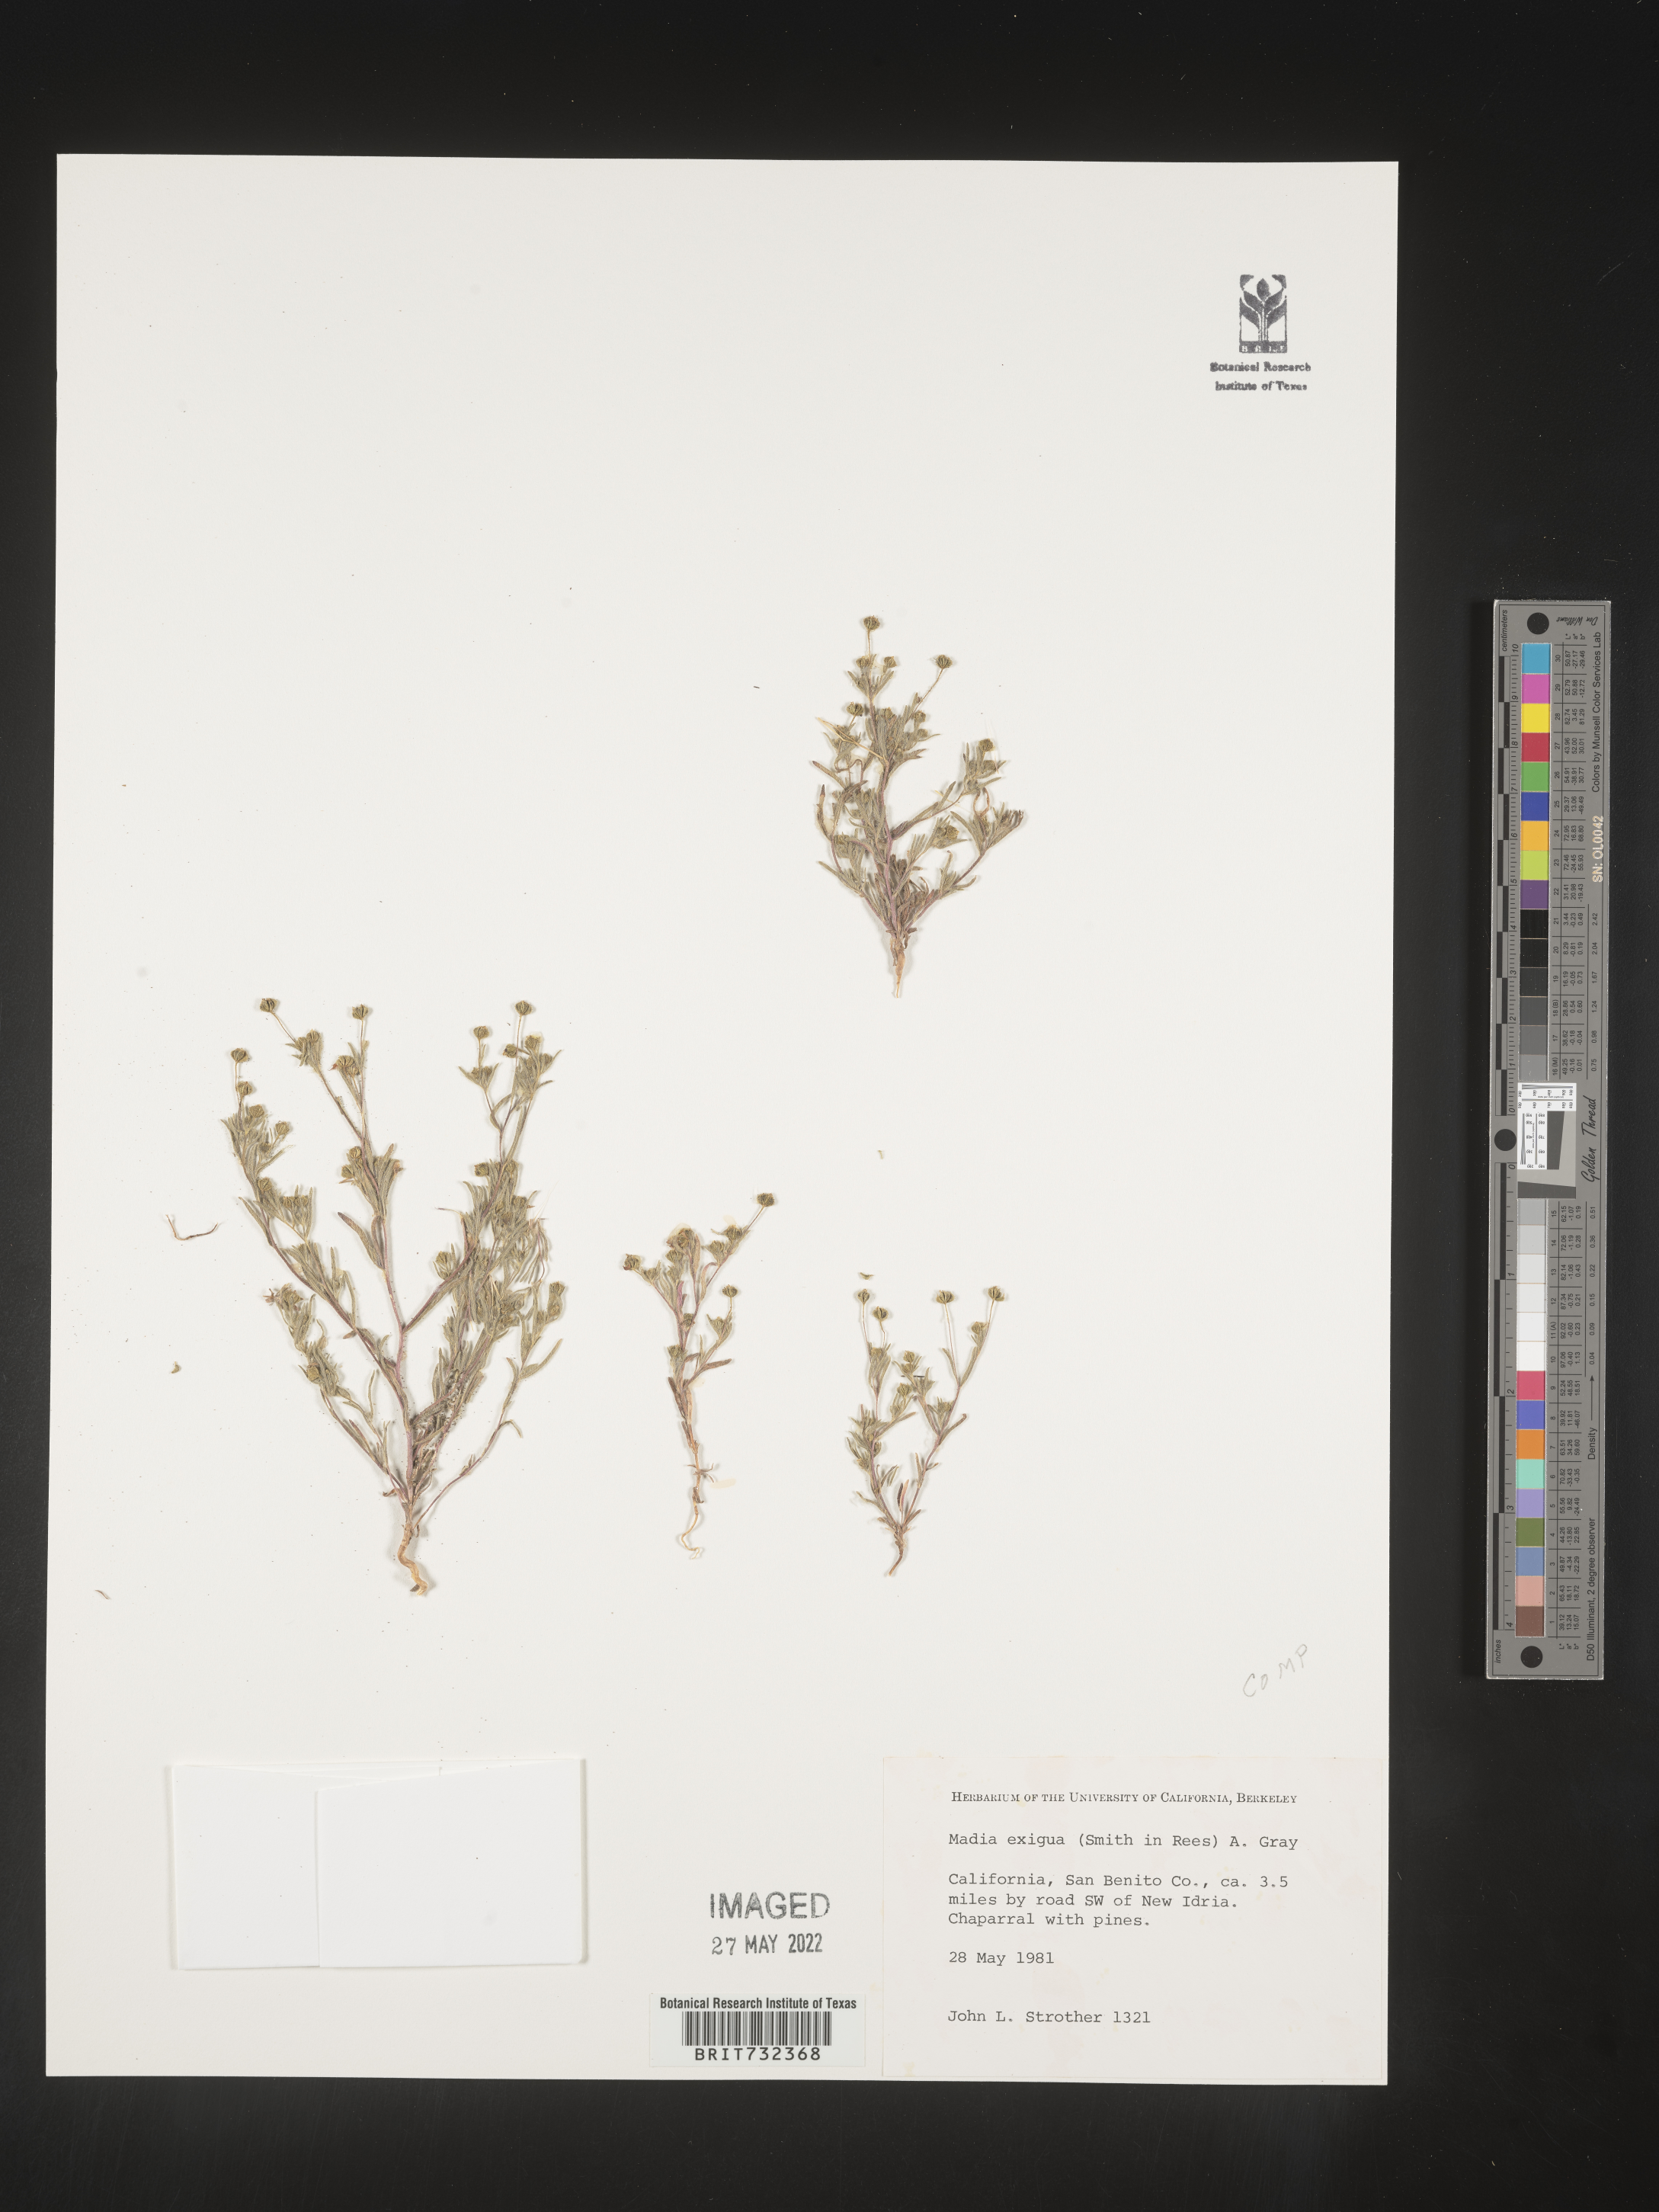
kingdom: Plantae
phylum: Tracheophyta
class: Magnoliopsida
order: Asterales
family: Asteraceae
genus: Madia
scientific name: Madia
